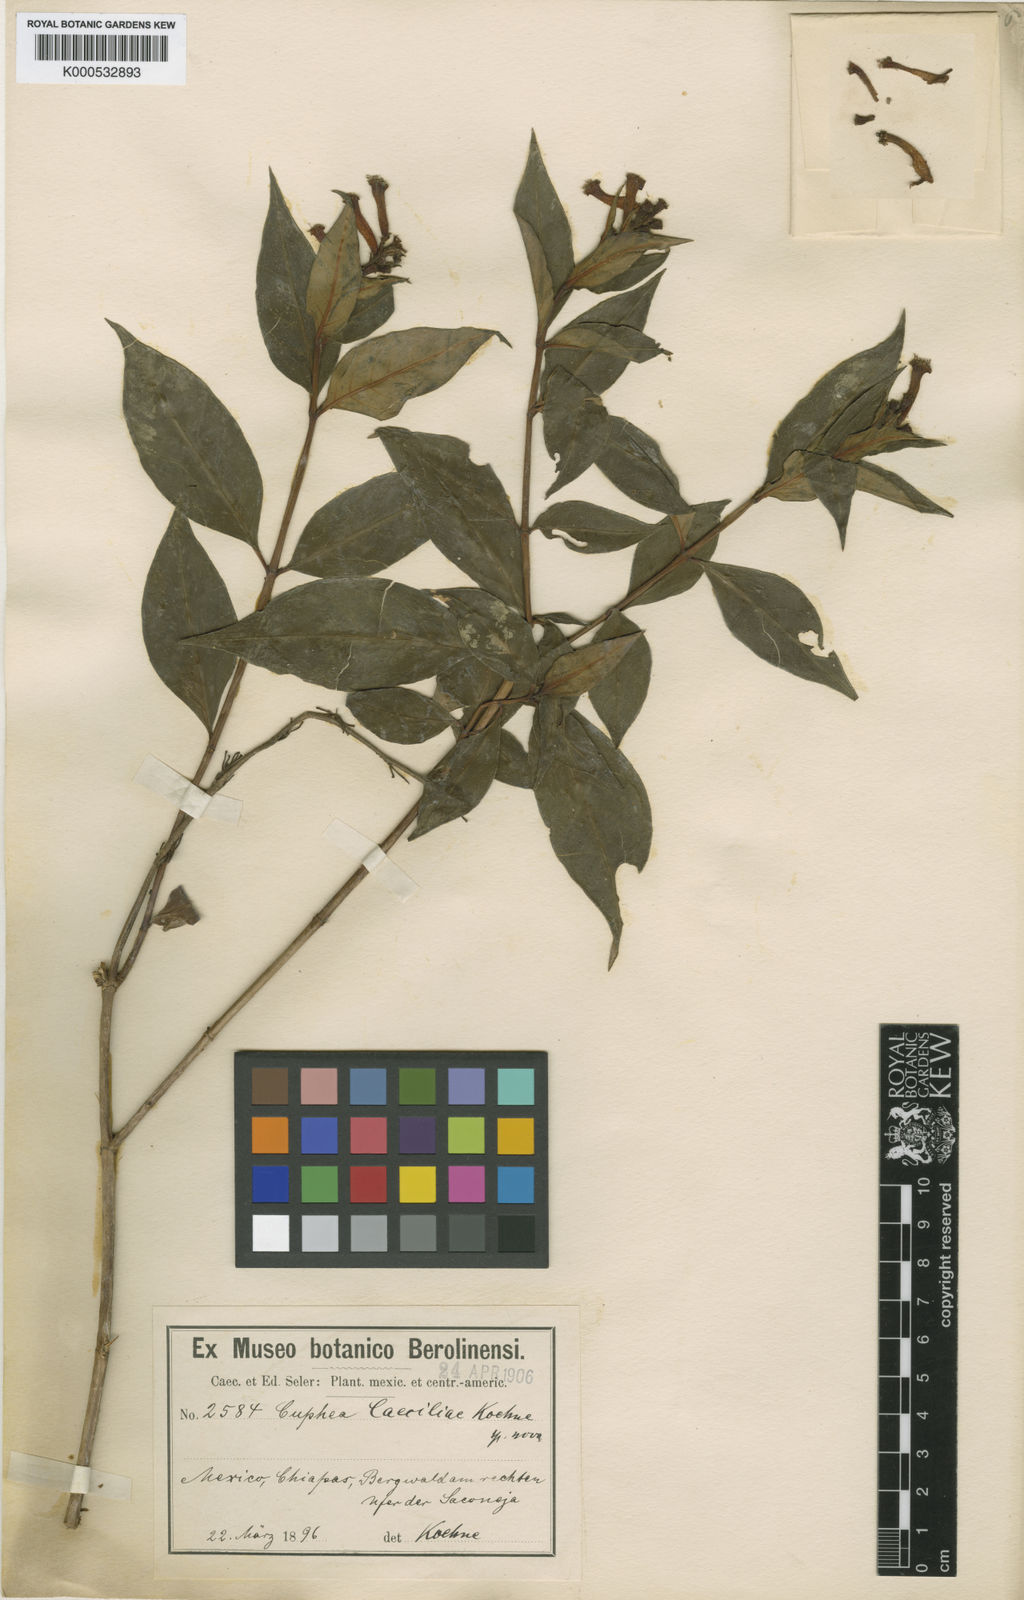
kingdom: Plantae
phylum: Tracheophyta
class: Magnoliopsida
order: Myrtales
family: Lythraceae
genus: Cuphea
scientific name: Cuphea subuligera
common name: Mauve cuphea
